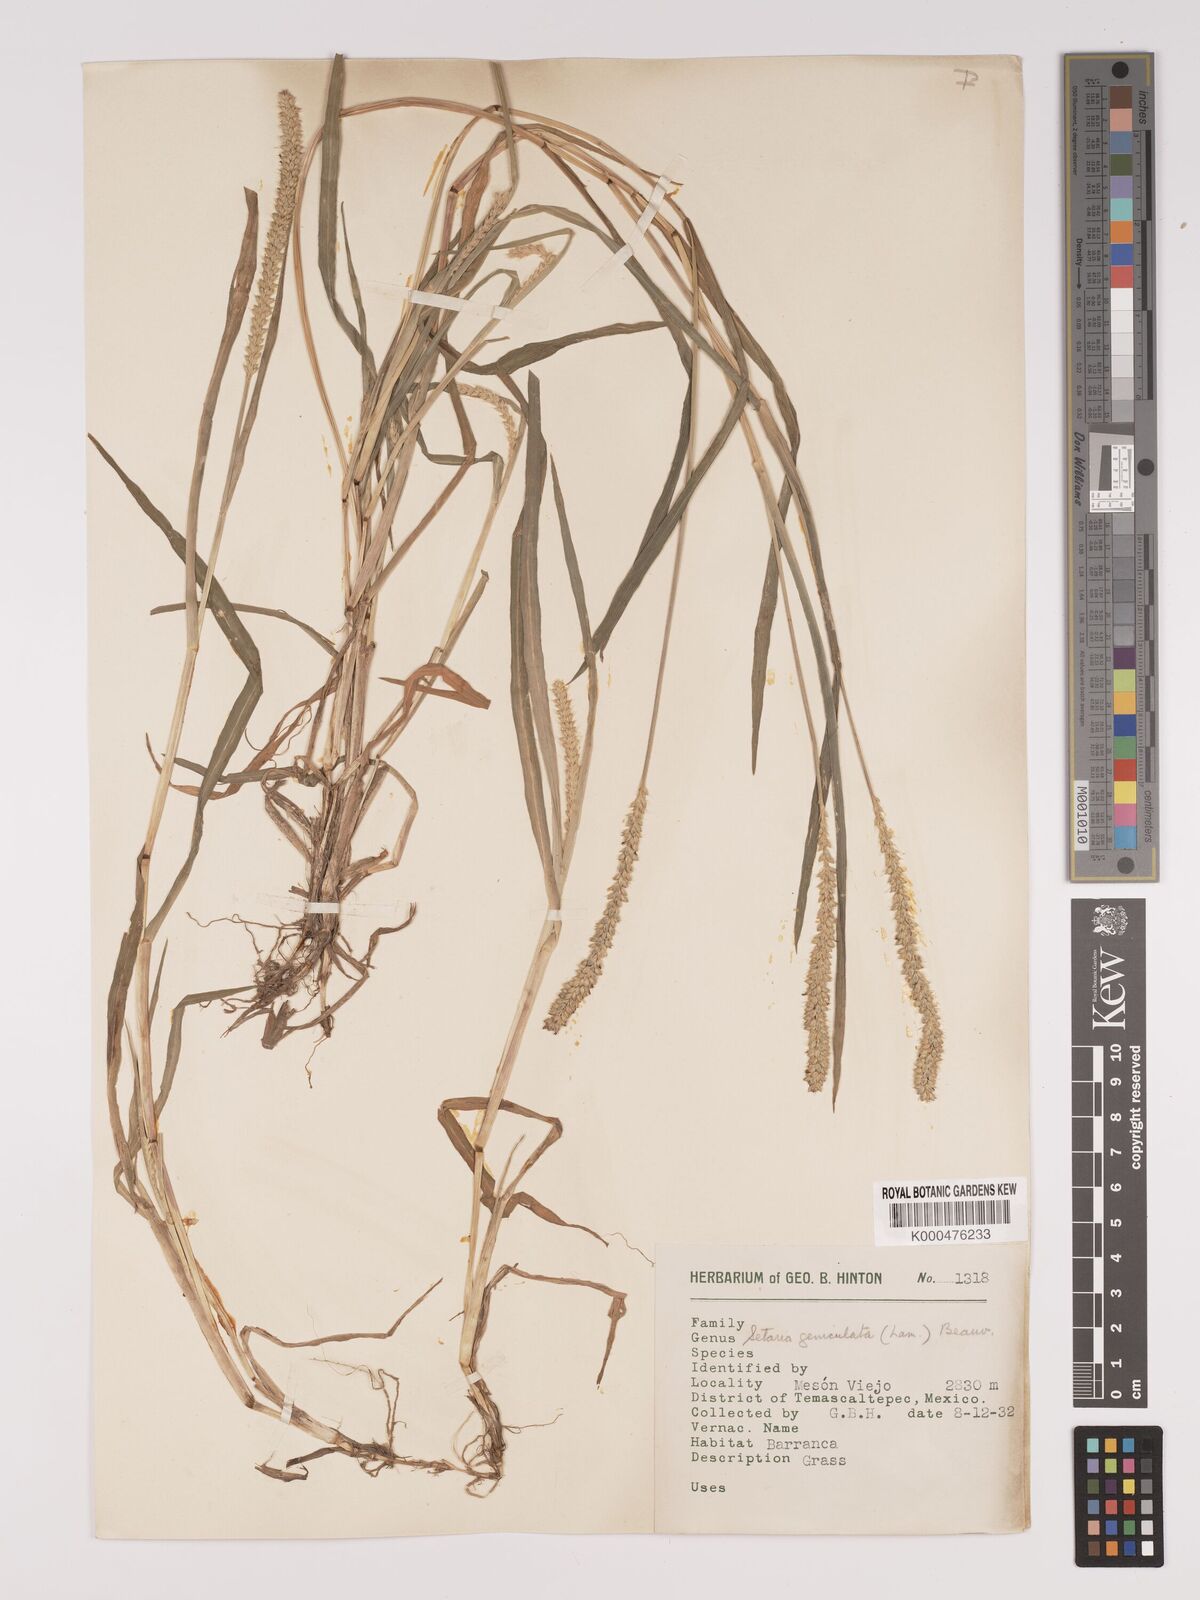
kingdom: Plantae
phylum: Tracheophyta
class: Liliopsida
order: Poales
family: Poaceae
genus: Setaria
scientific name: Setaria
